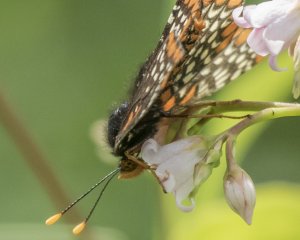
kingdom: Animalia
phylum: Arthropoda
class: Insecta
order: Lepidoptera
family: Nymphalidae
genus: Euphydryas
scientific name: Euphydryas phaeton
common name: Baltimore Checkerspot
